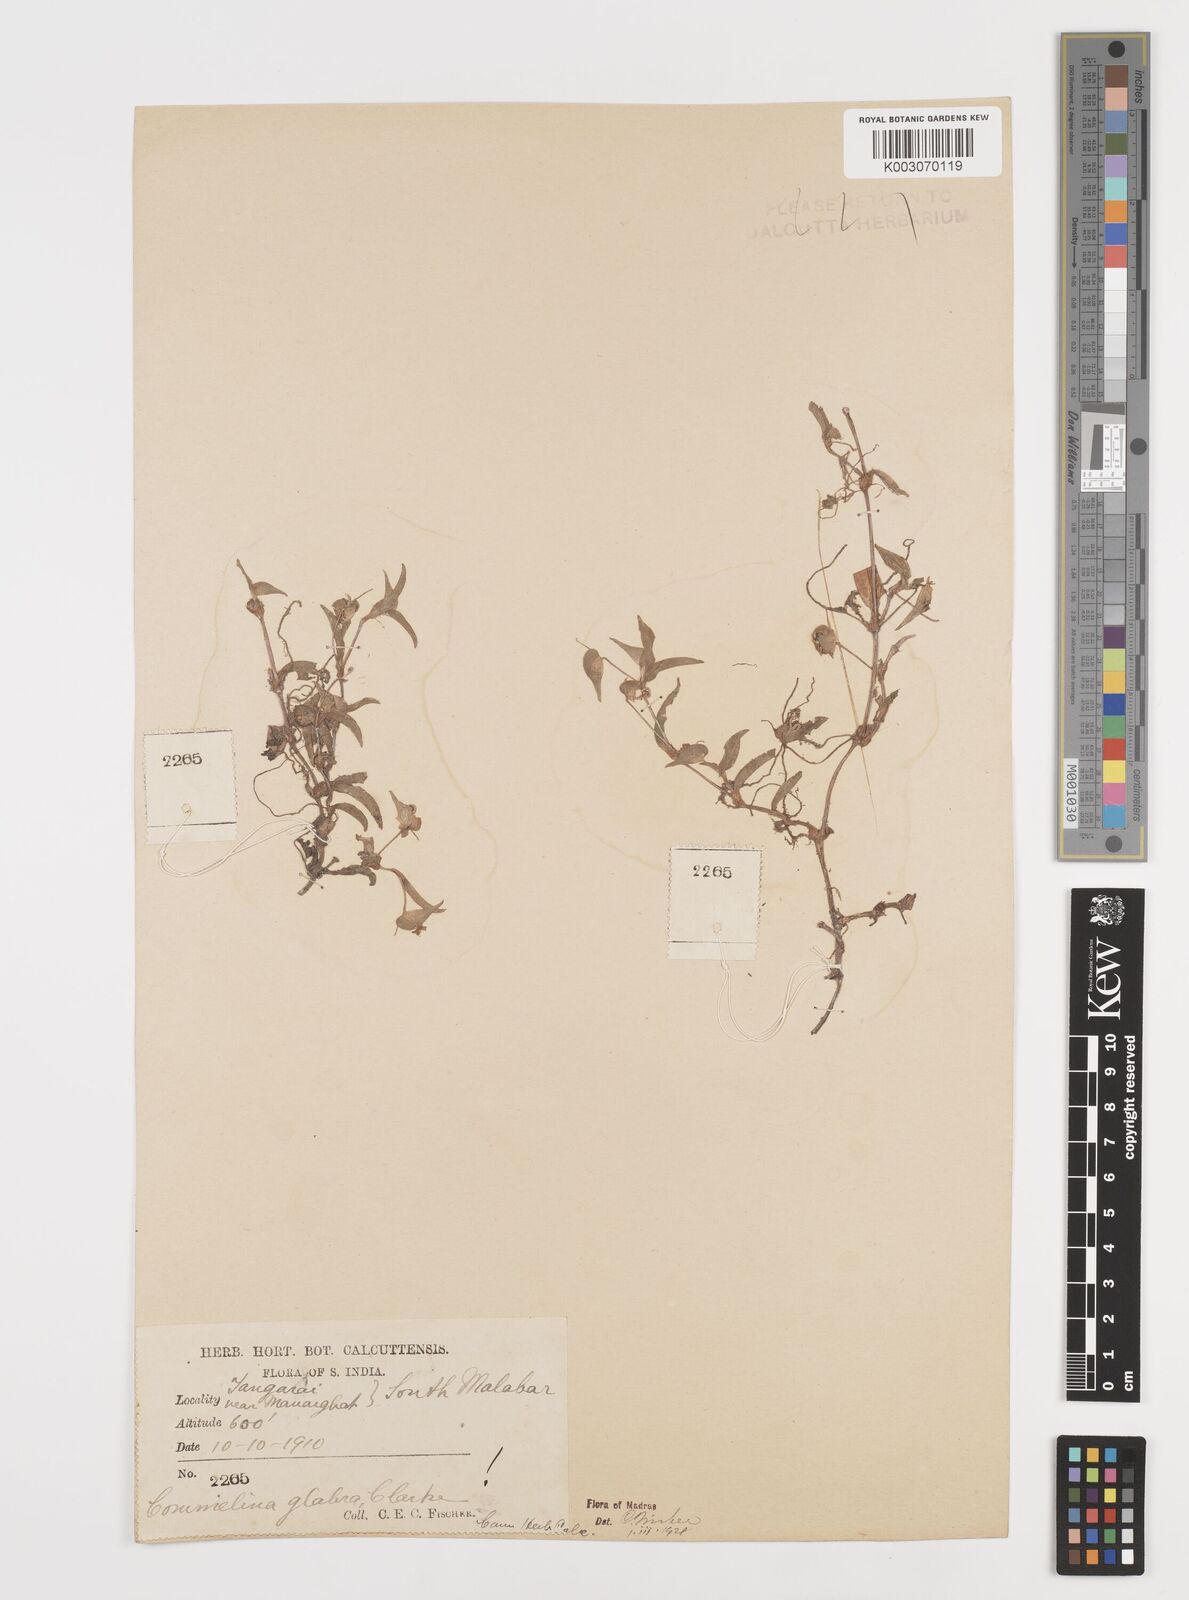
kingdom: Plantae
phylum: Tracheophyta
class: Liliopsida
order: Commelinales
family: Commelinaceae
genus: Commelina
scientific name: Commelina wightii
